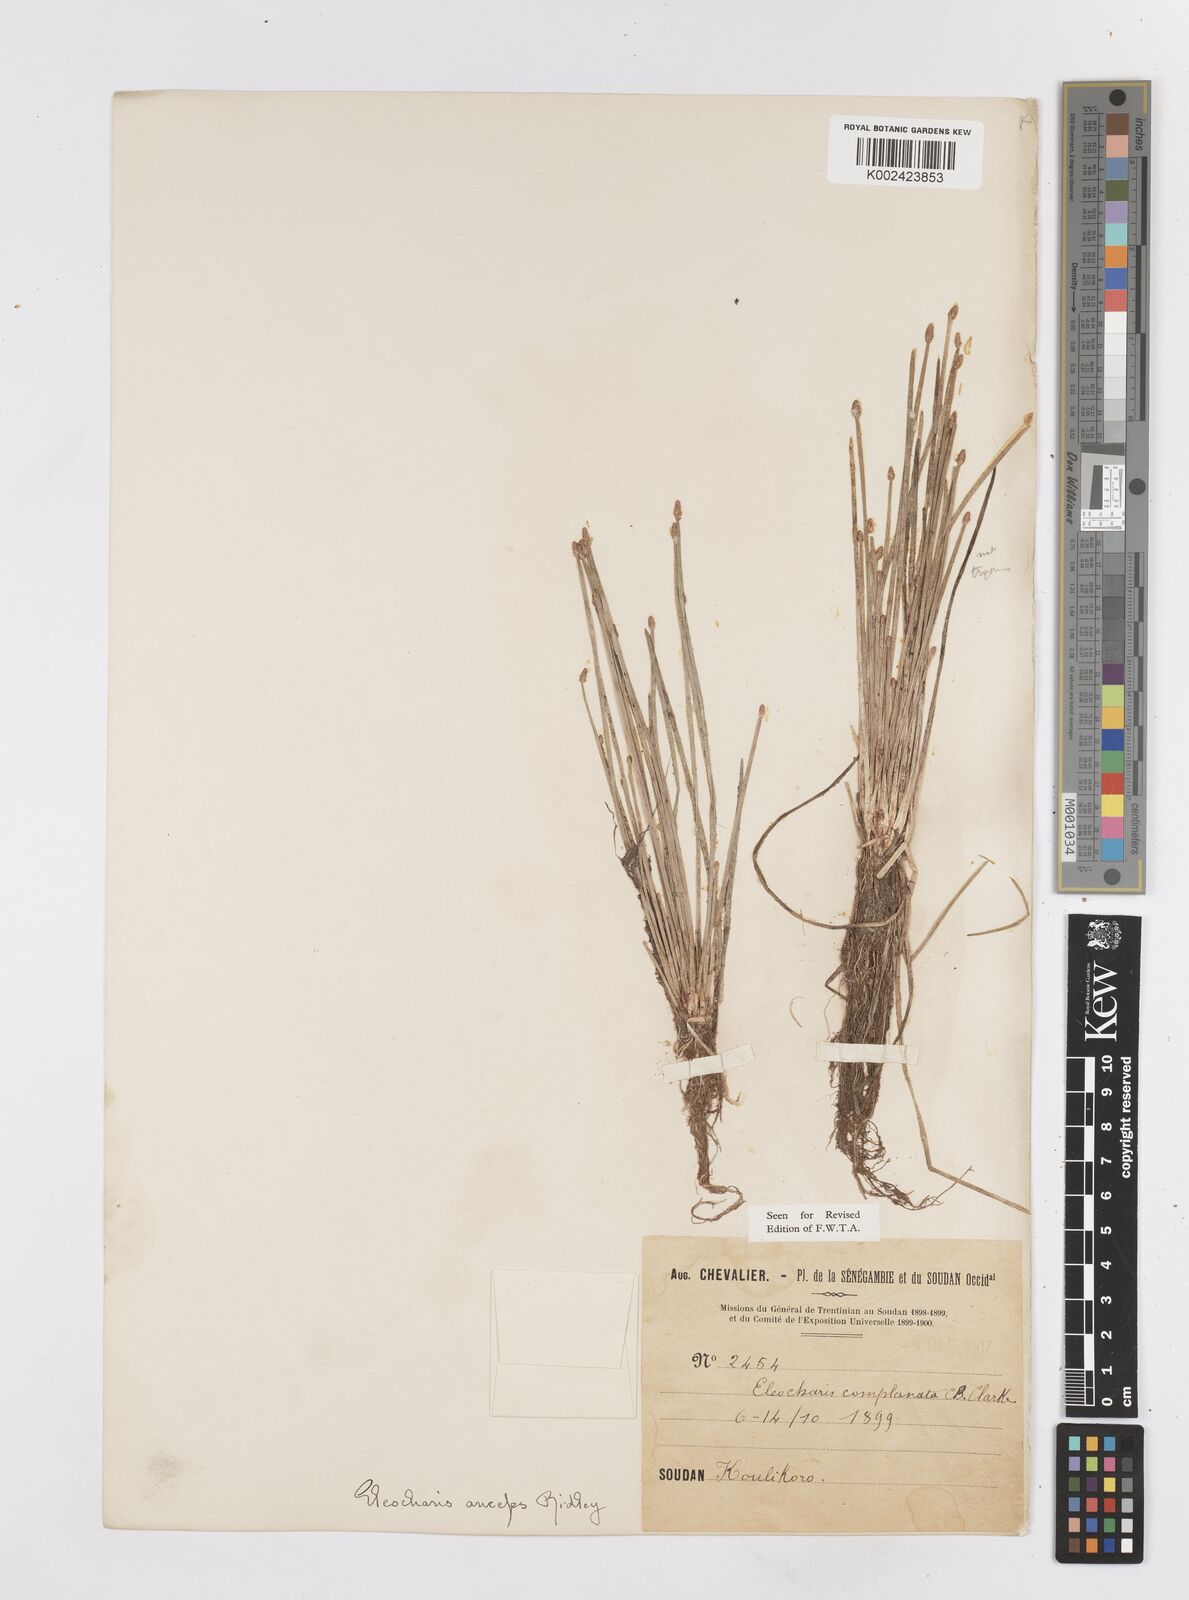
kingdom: Plantae
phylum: Tracheophyta
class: Liliopsida
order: Poales
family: Cyperaceae
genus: Eleocharis
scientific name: Eleocharis complanata
